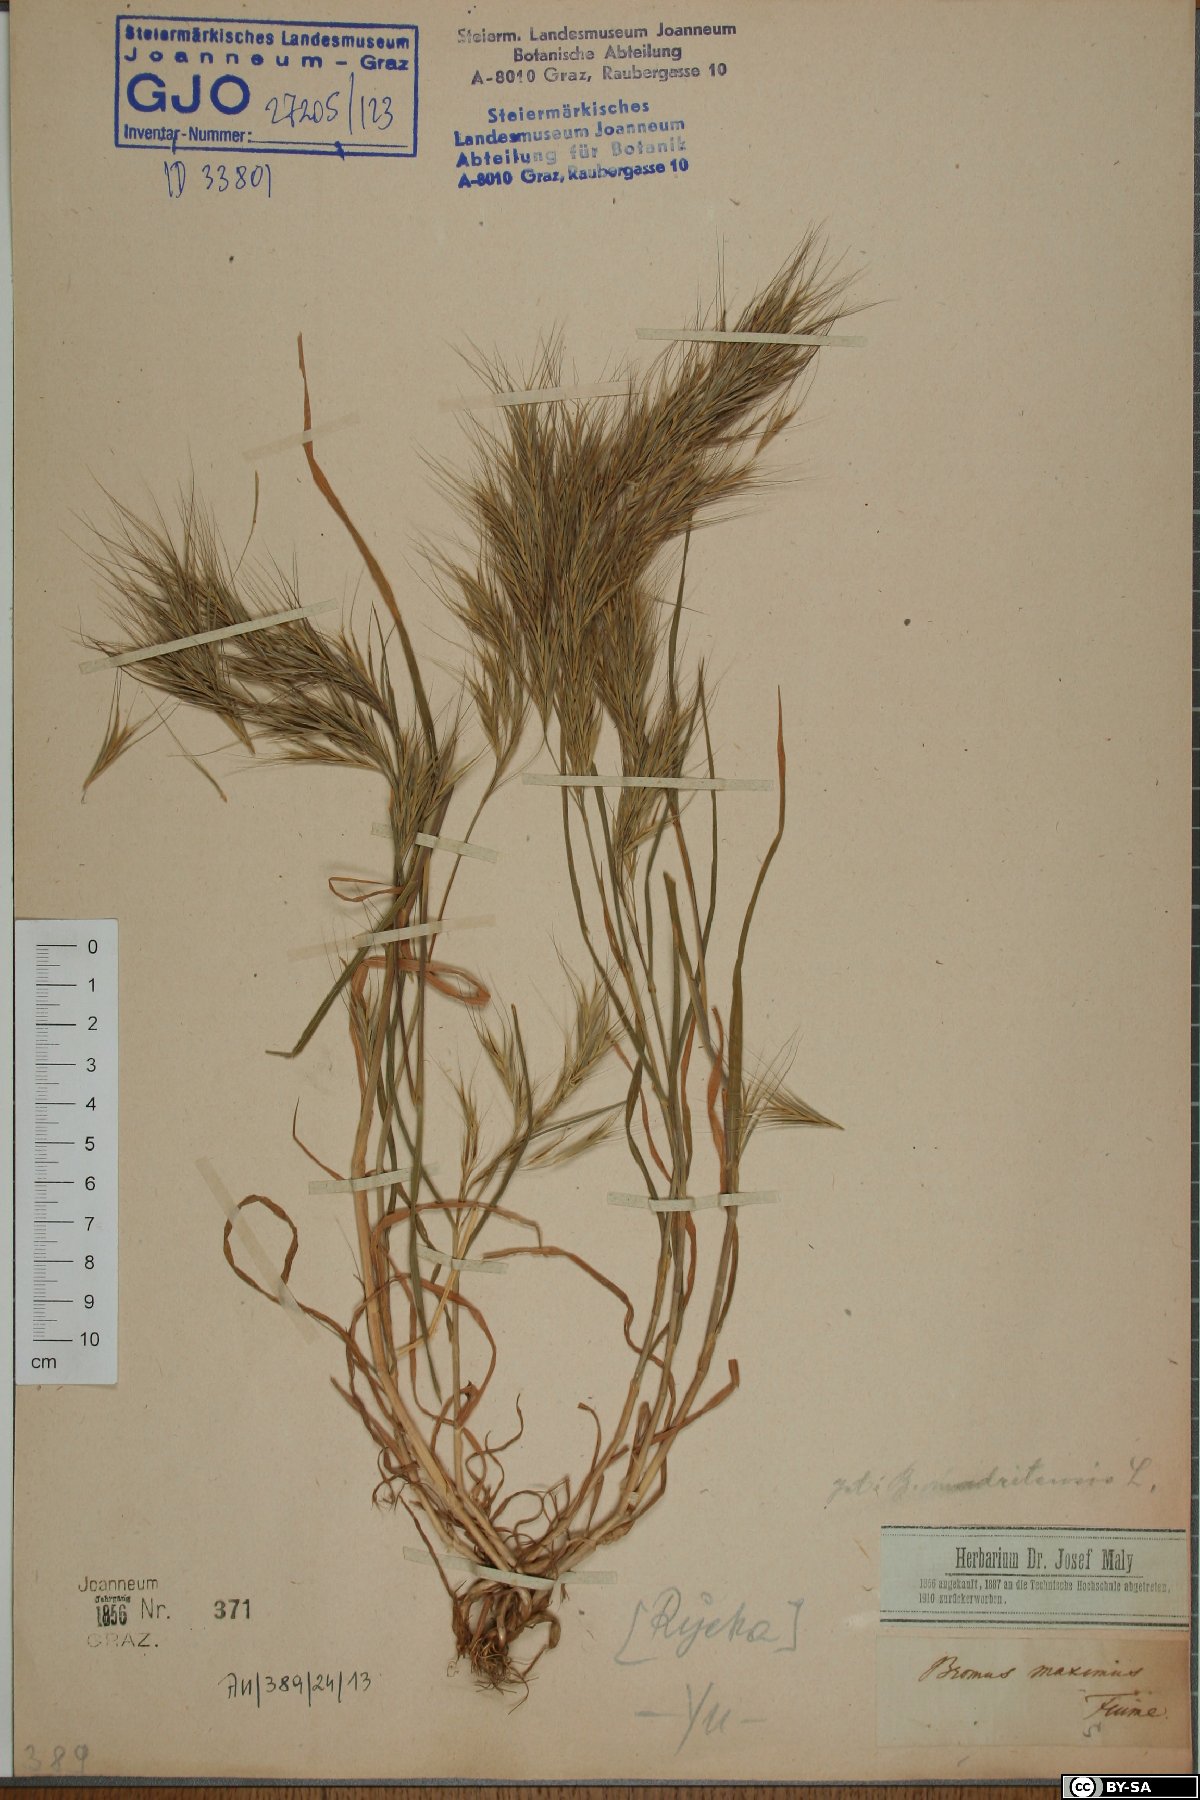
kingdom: Plantae
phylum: Tracheophyta
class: Liliopsida
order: Poales
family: Poaceae
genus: Bromus
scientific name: Bromus madritensis
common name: Compact brome
